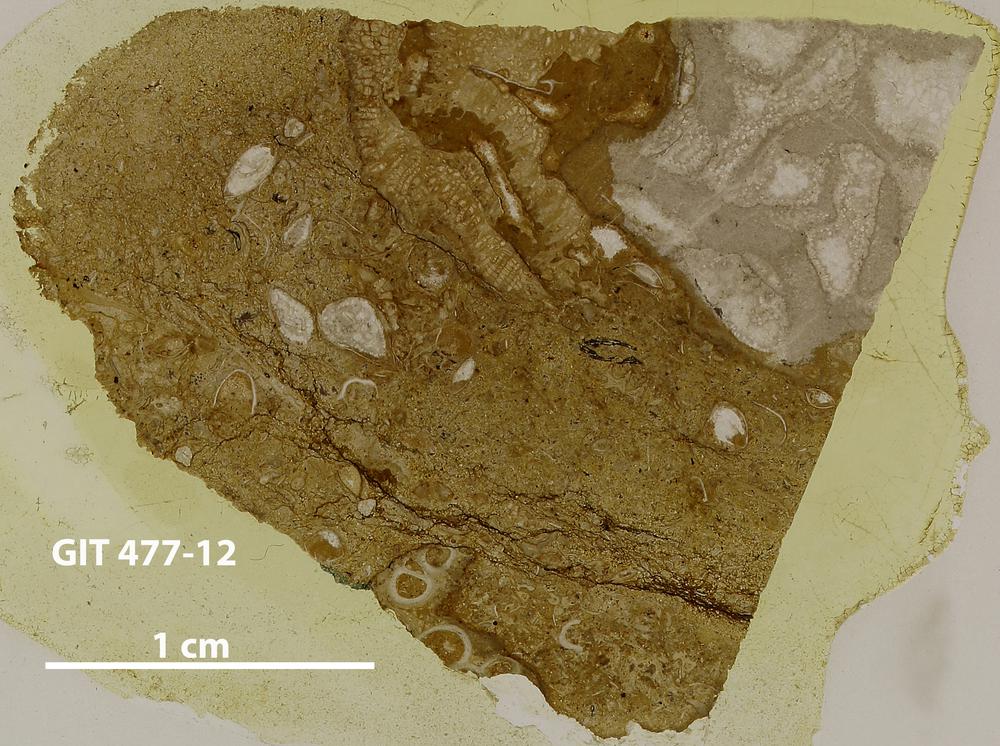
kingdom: Animalia
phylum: Porifera
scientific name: Porifera
